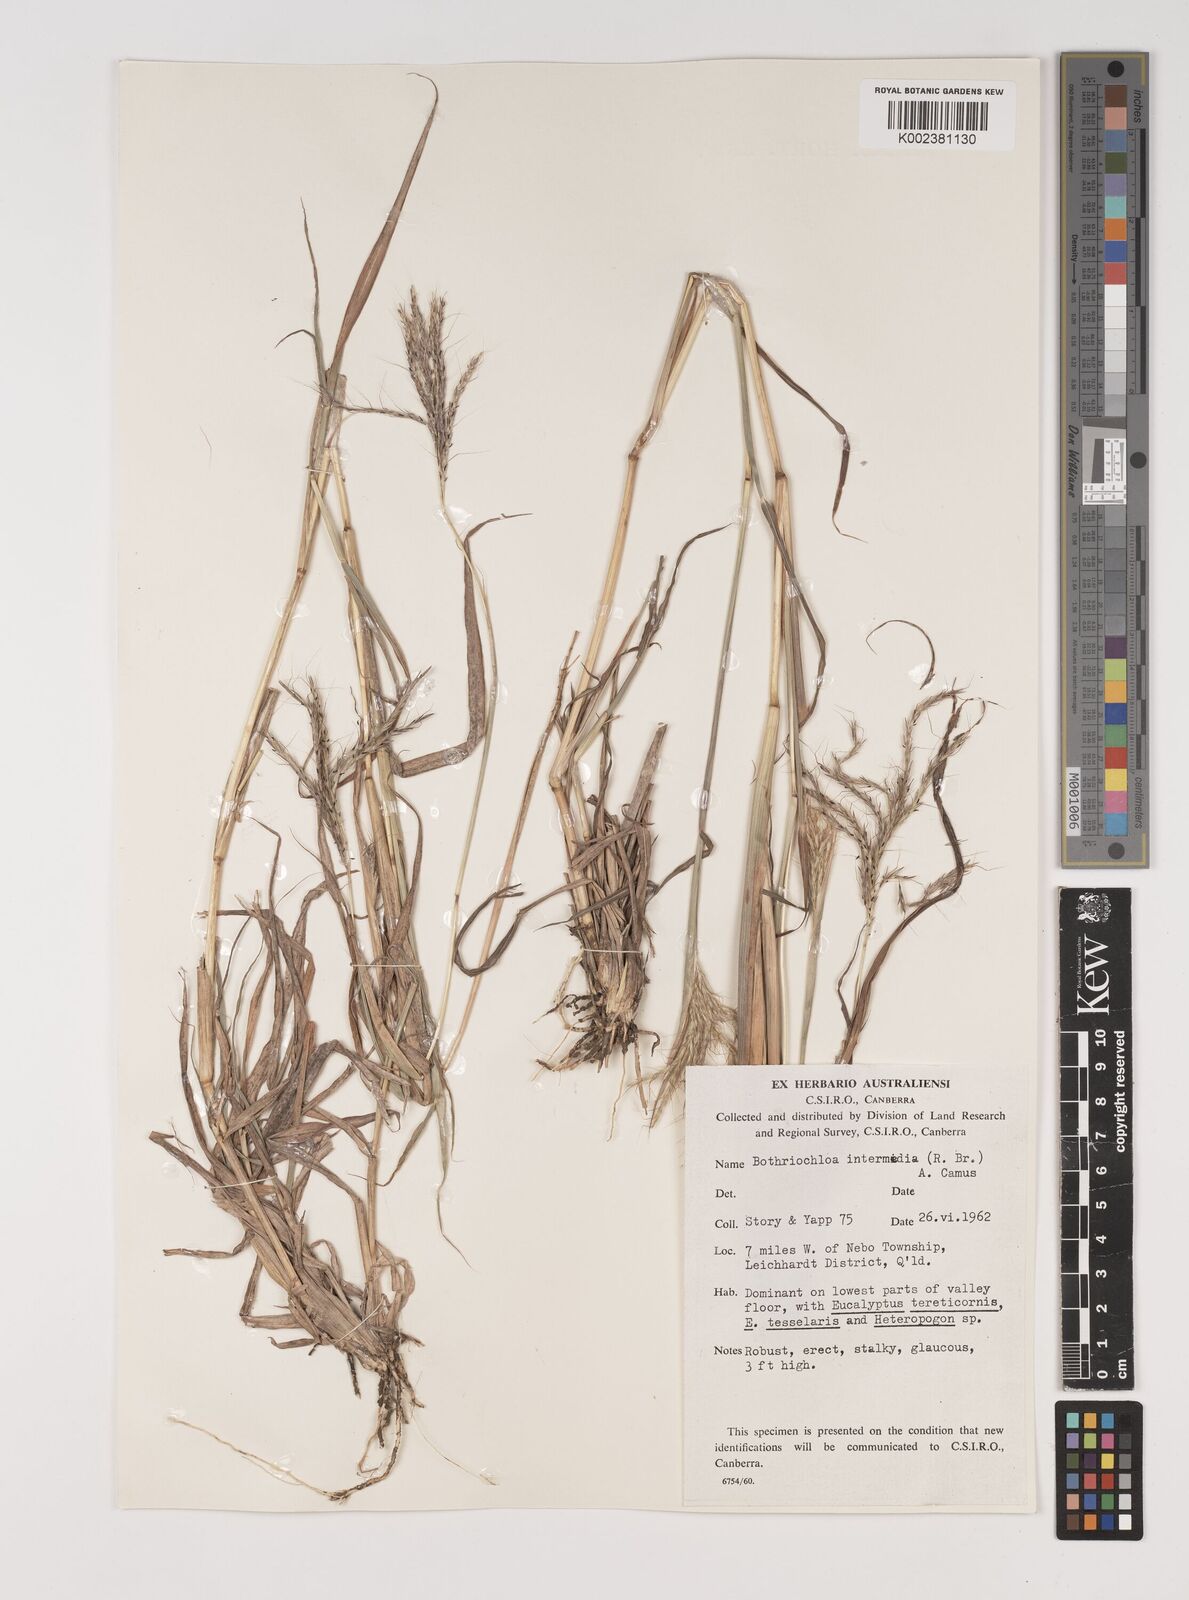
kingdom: Plantae
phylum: Tracheophyta
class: Liliopsida
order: Poales
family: Poaceae
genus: Bothriochloa
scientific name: Bothriochloa ewartiana
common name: Desert-bluegrass
